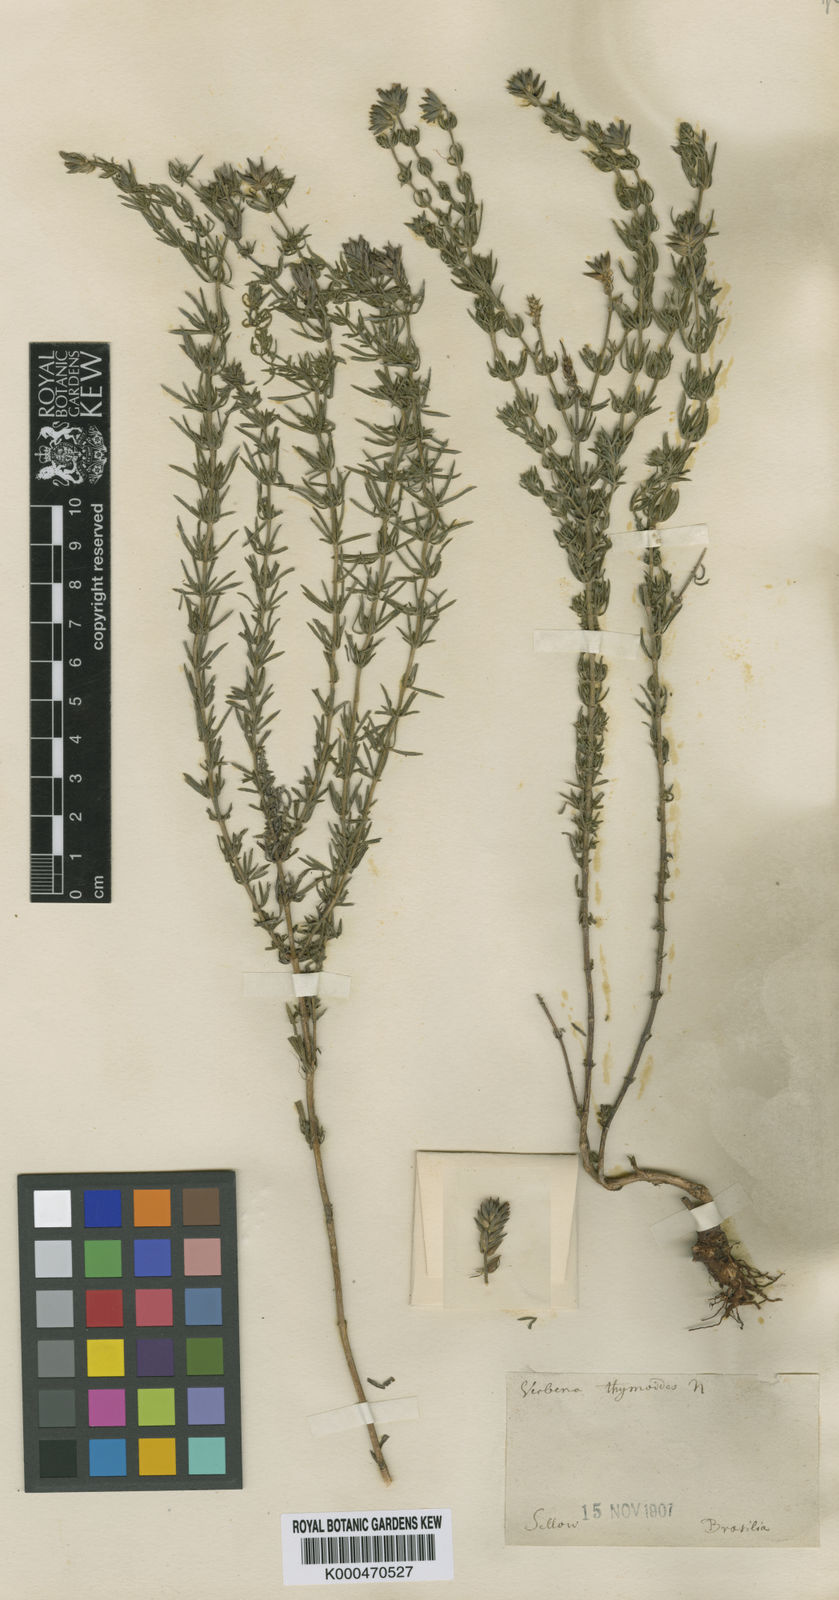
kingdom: Plantae
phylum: Tracheophyta
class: Magnoliopsida
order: Lamiales
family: Verbenaceae
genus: Verbena
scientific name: Verbena thymoides
